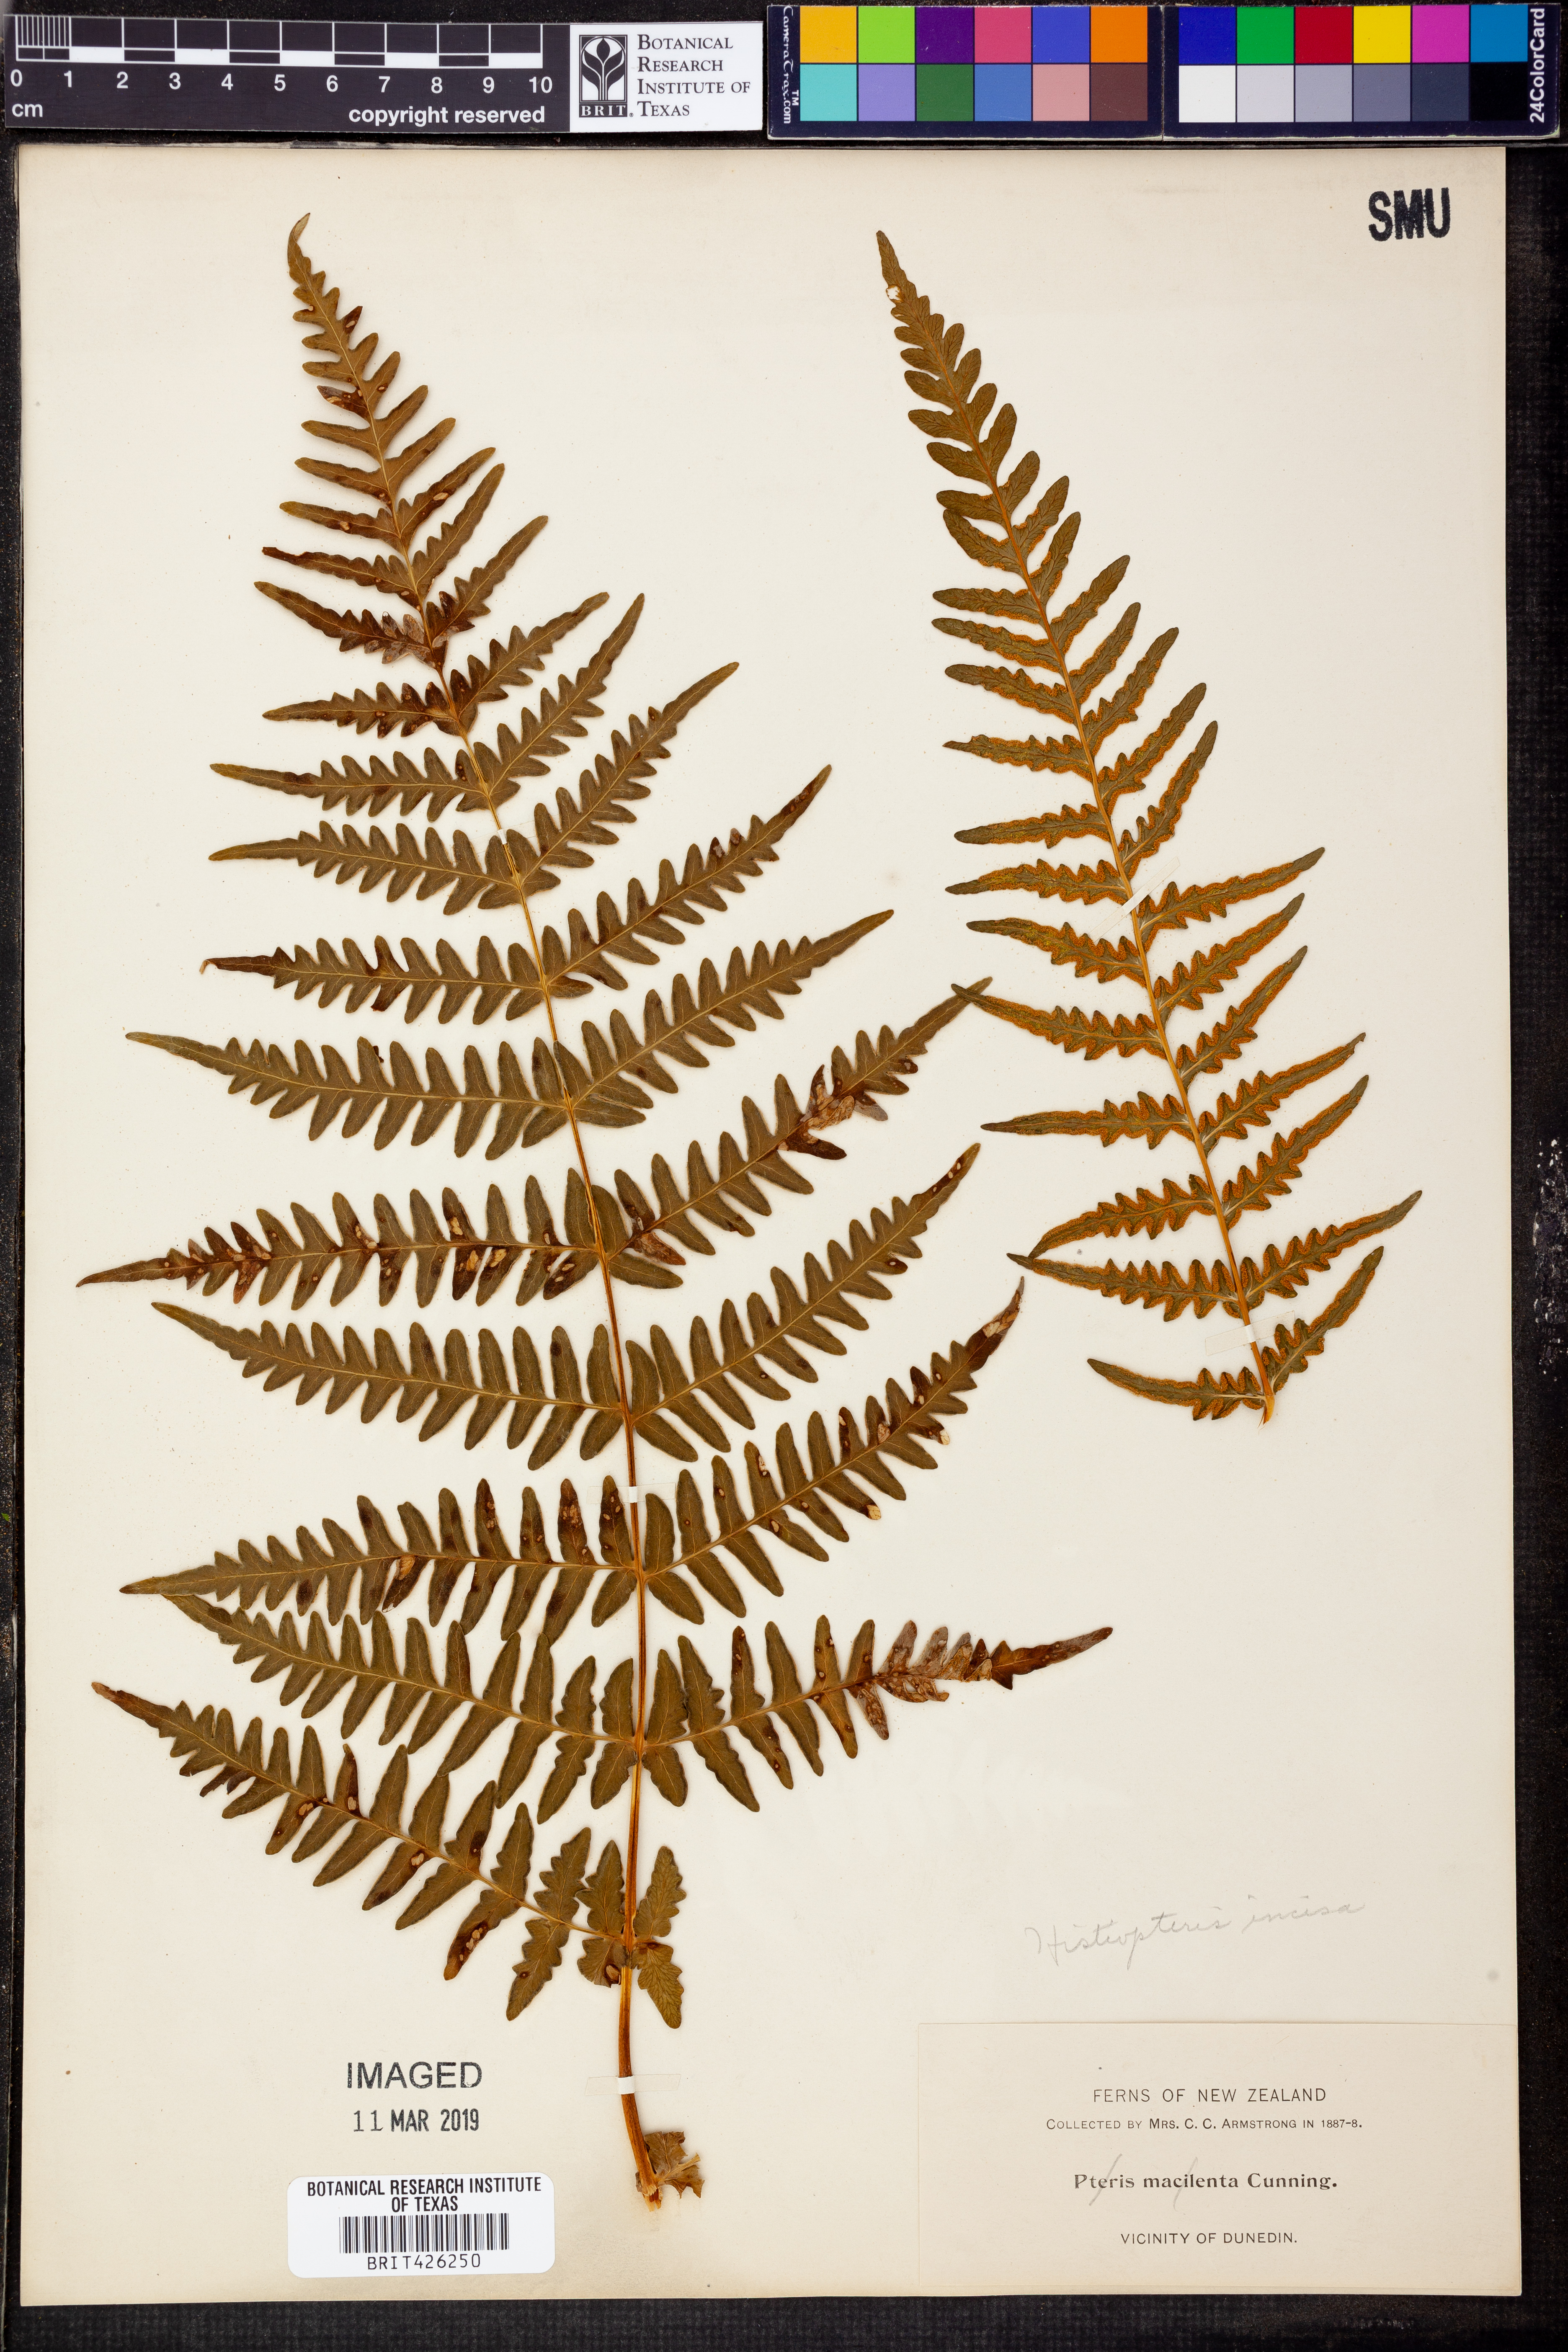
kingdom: Plantae
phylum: Tracheophyta
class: Polypodiopsida
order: Polypodiales
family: Dennstaedtiaceae
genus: Histiopteris
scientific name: Histiopteris incisa
